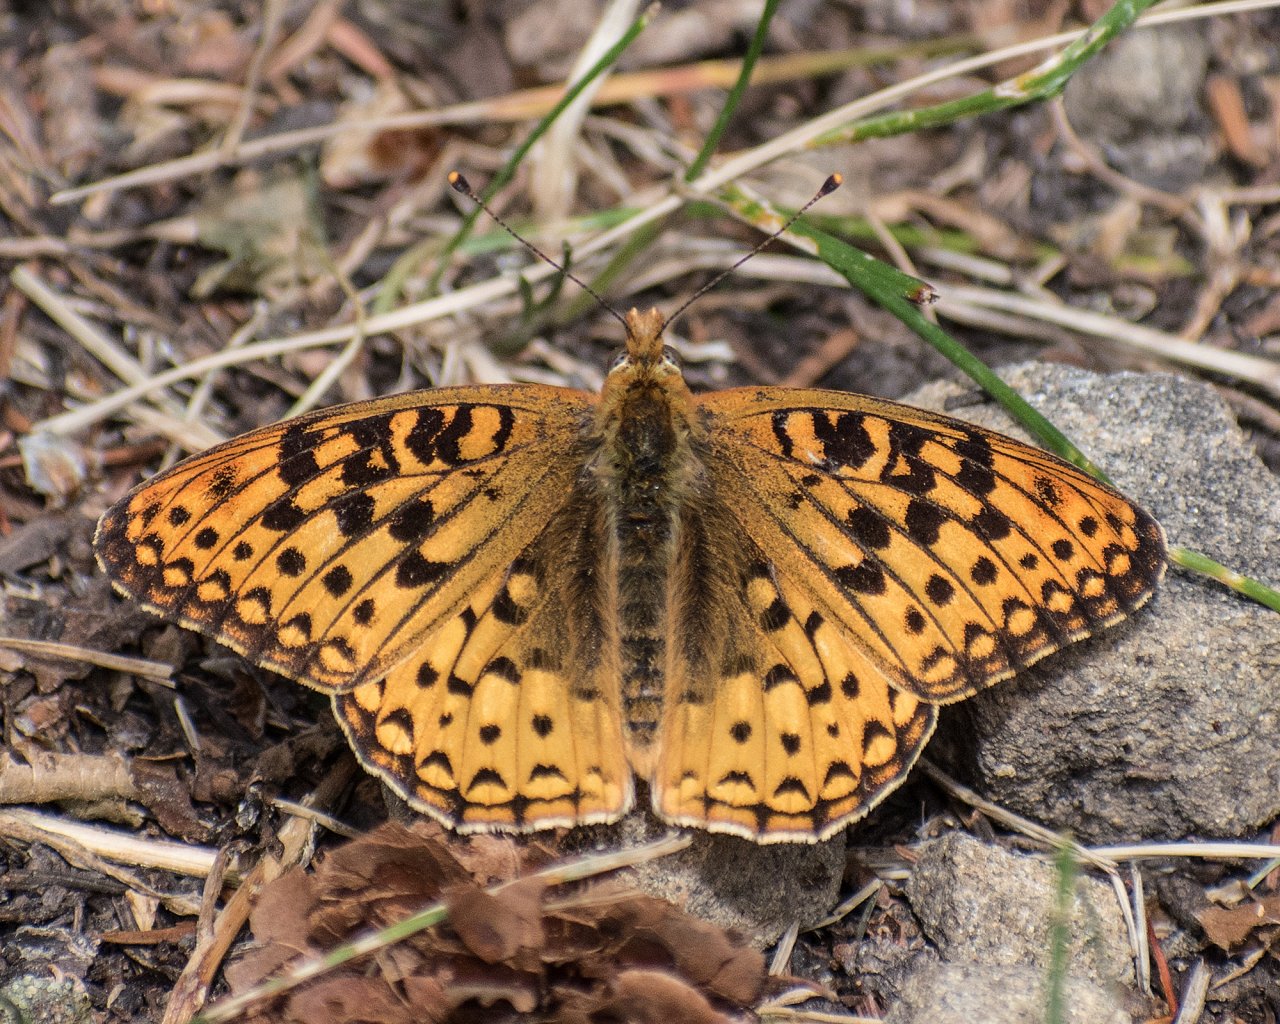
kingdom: Animalia
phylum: Arthropoda
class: Insecta
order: Lepidoptera
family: Nymphalidae
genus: Speyeria
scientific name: Speyeria edwardsii
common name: Edwards' Fritillary
